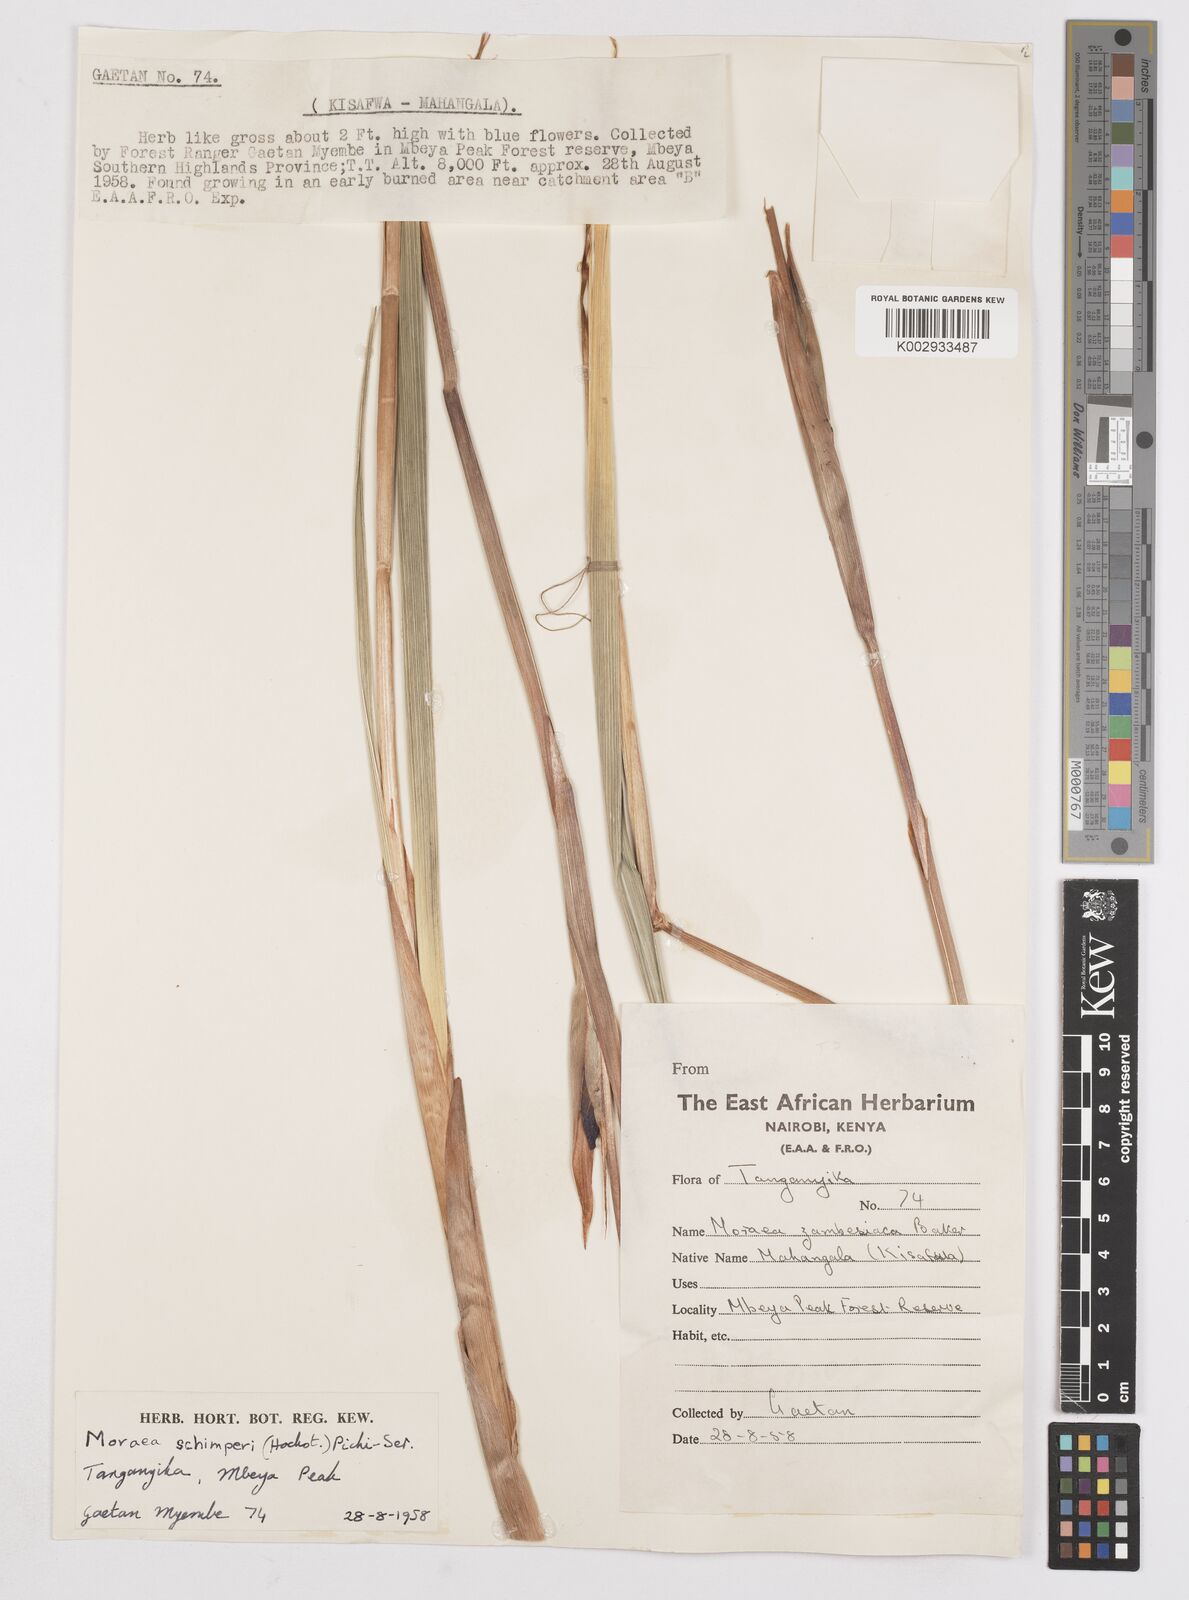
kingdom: Plantae
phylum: Tracheophyta
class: Liliopsida
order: Asparagales
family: Iridaceae
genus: Moraea
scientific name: Moraea schimperi
